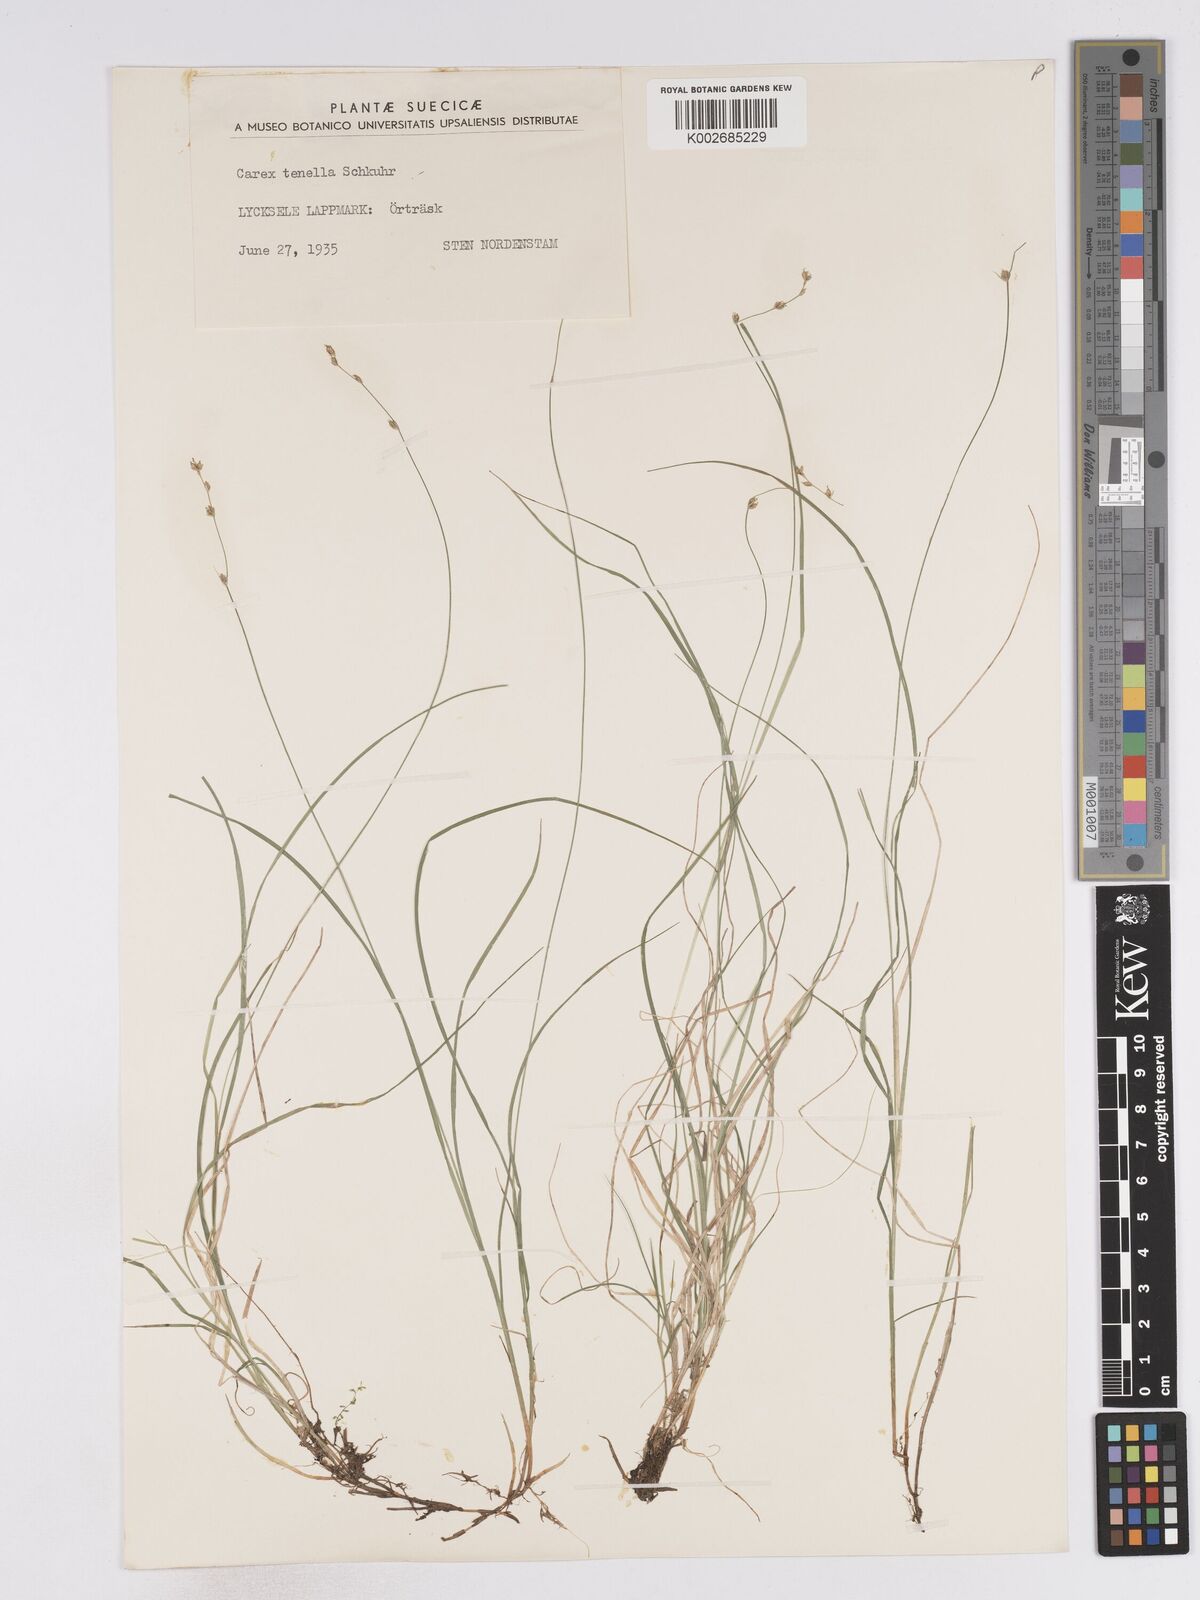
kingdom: Plantae
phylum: Tracheophyta
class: Liliopsida
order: Poales
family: Cyperaceae
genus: Carex
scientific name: Carex loliacea
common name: Ryegrass sedge
